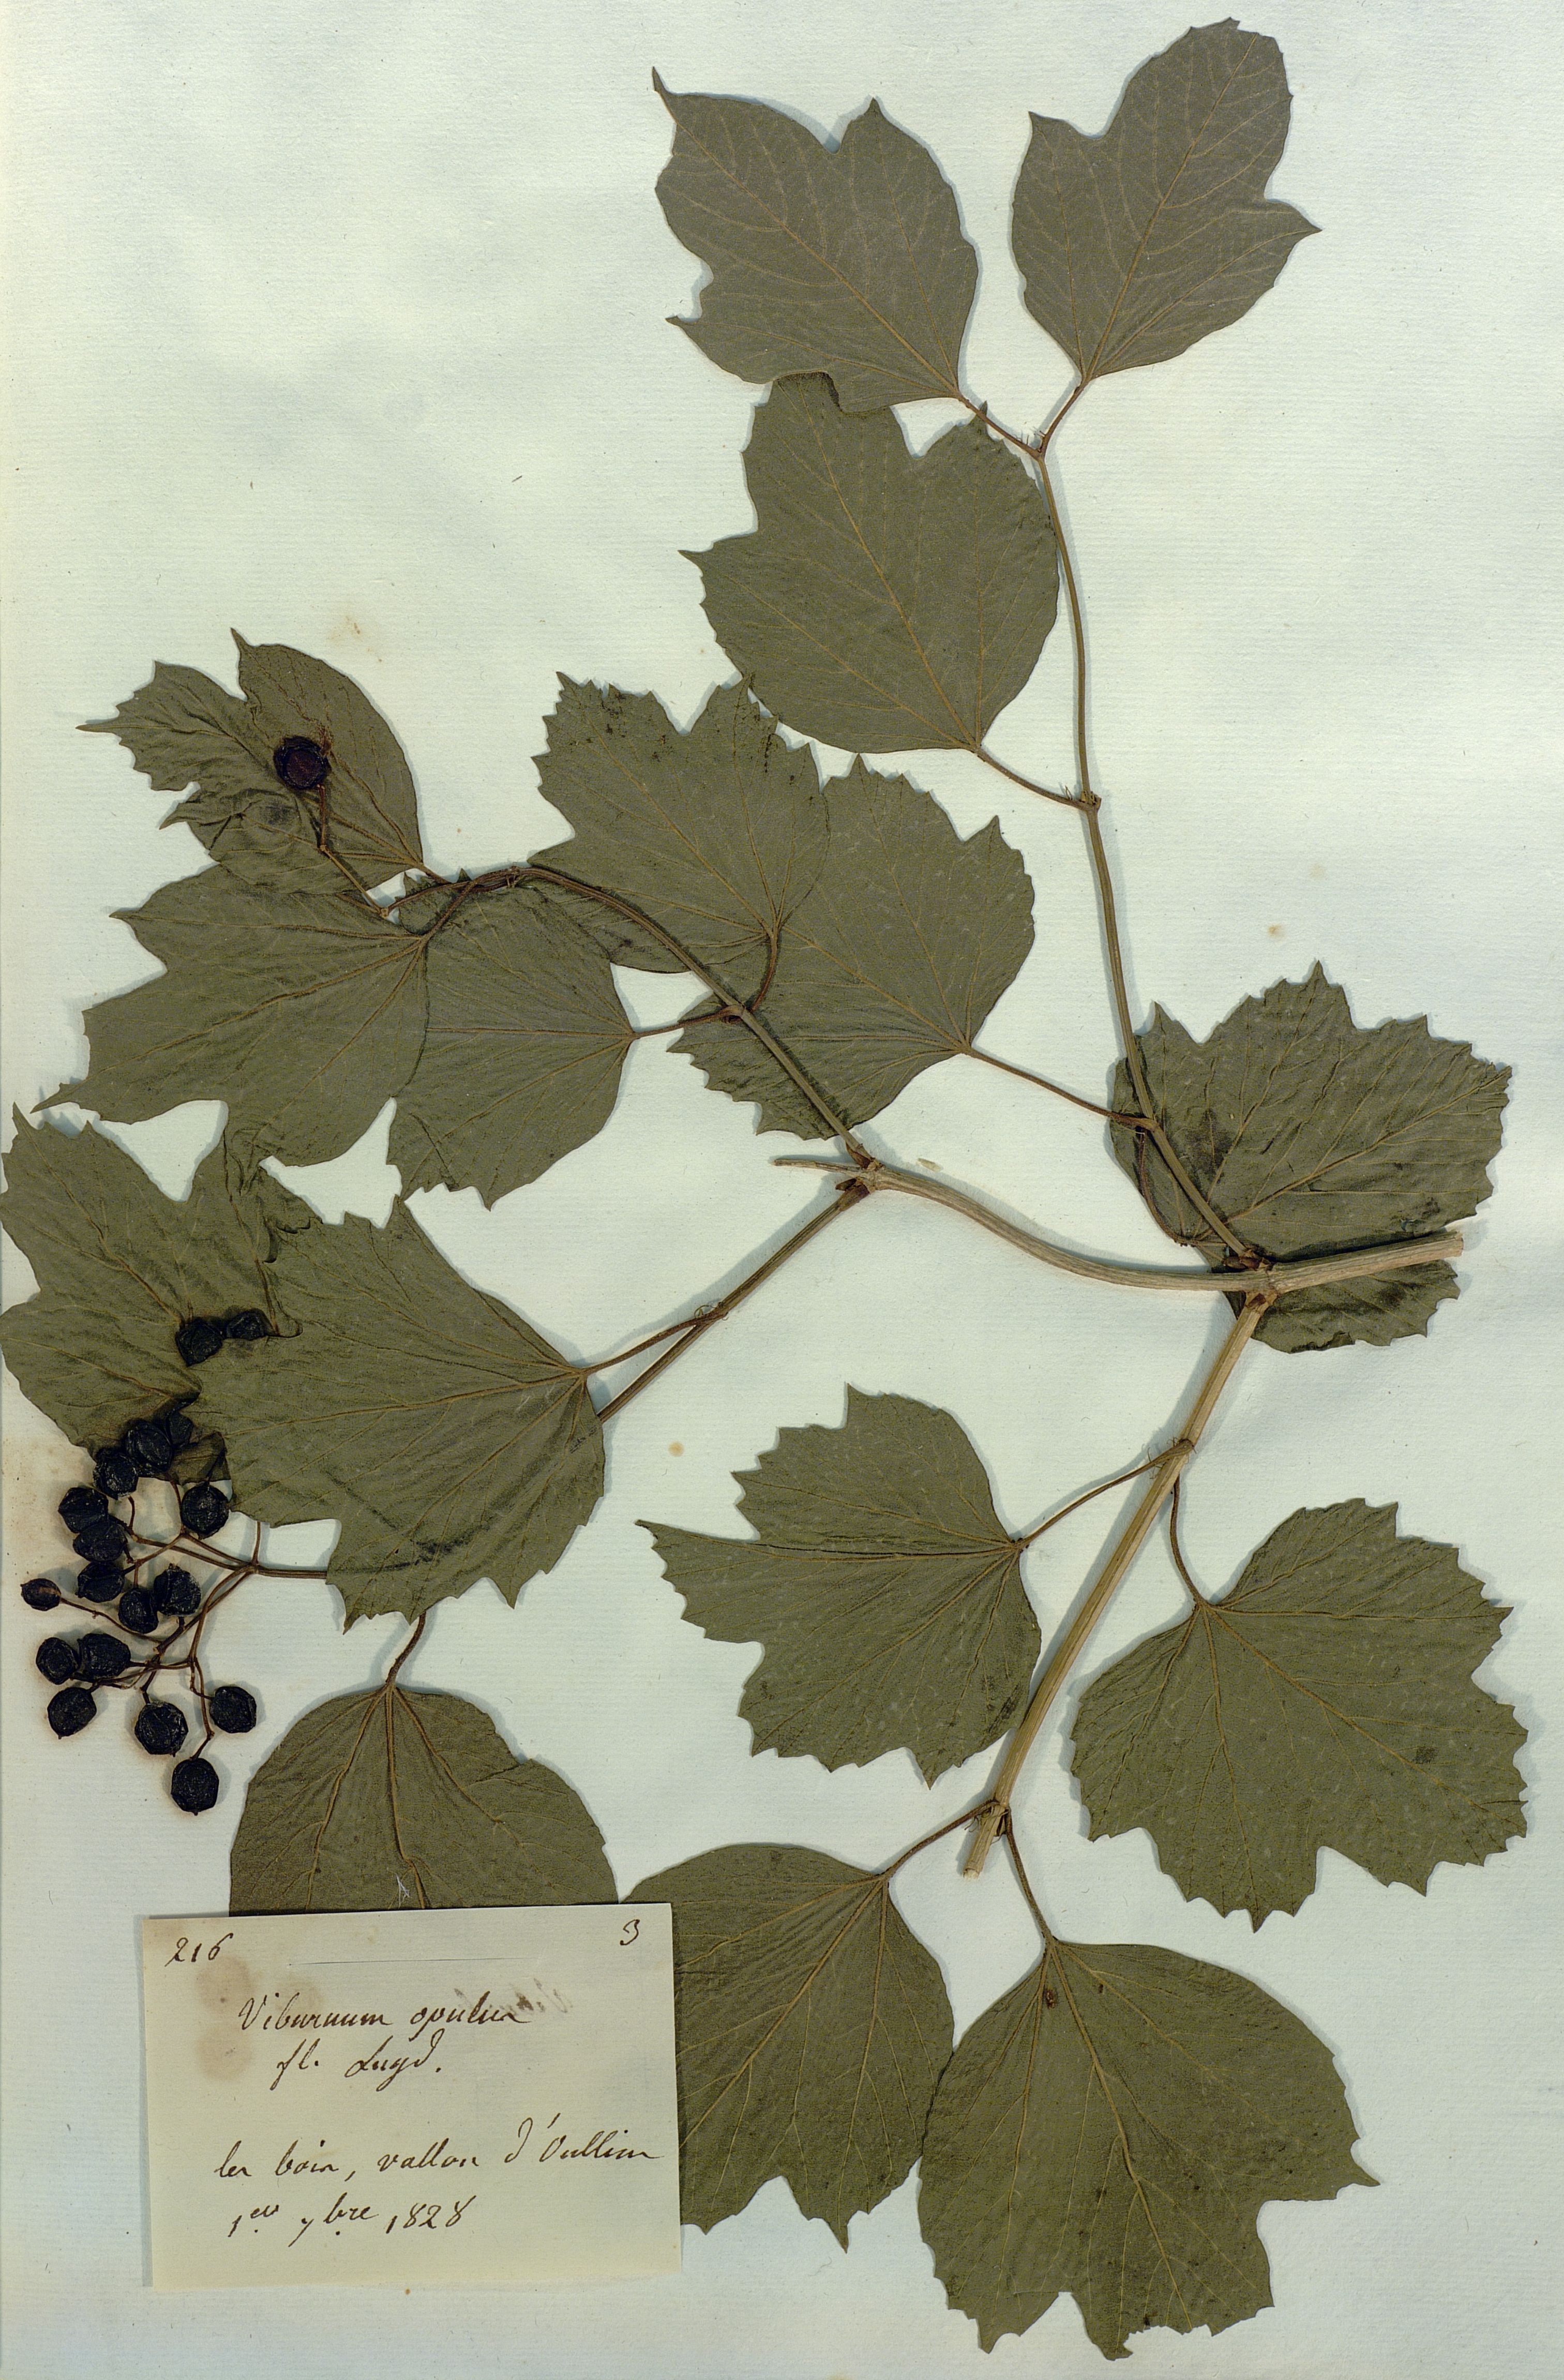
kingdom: Plantae
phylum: Tracheophyta
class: Magnoliopsida
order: Dipsacales
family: Viburnaceae
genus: Viburnum
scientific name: Viburnum opulus
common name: Guelder-rose
